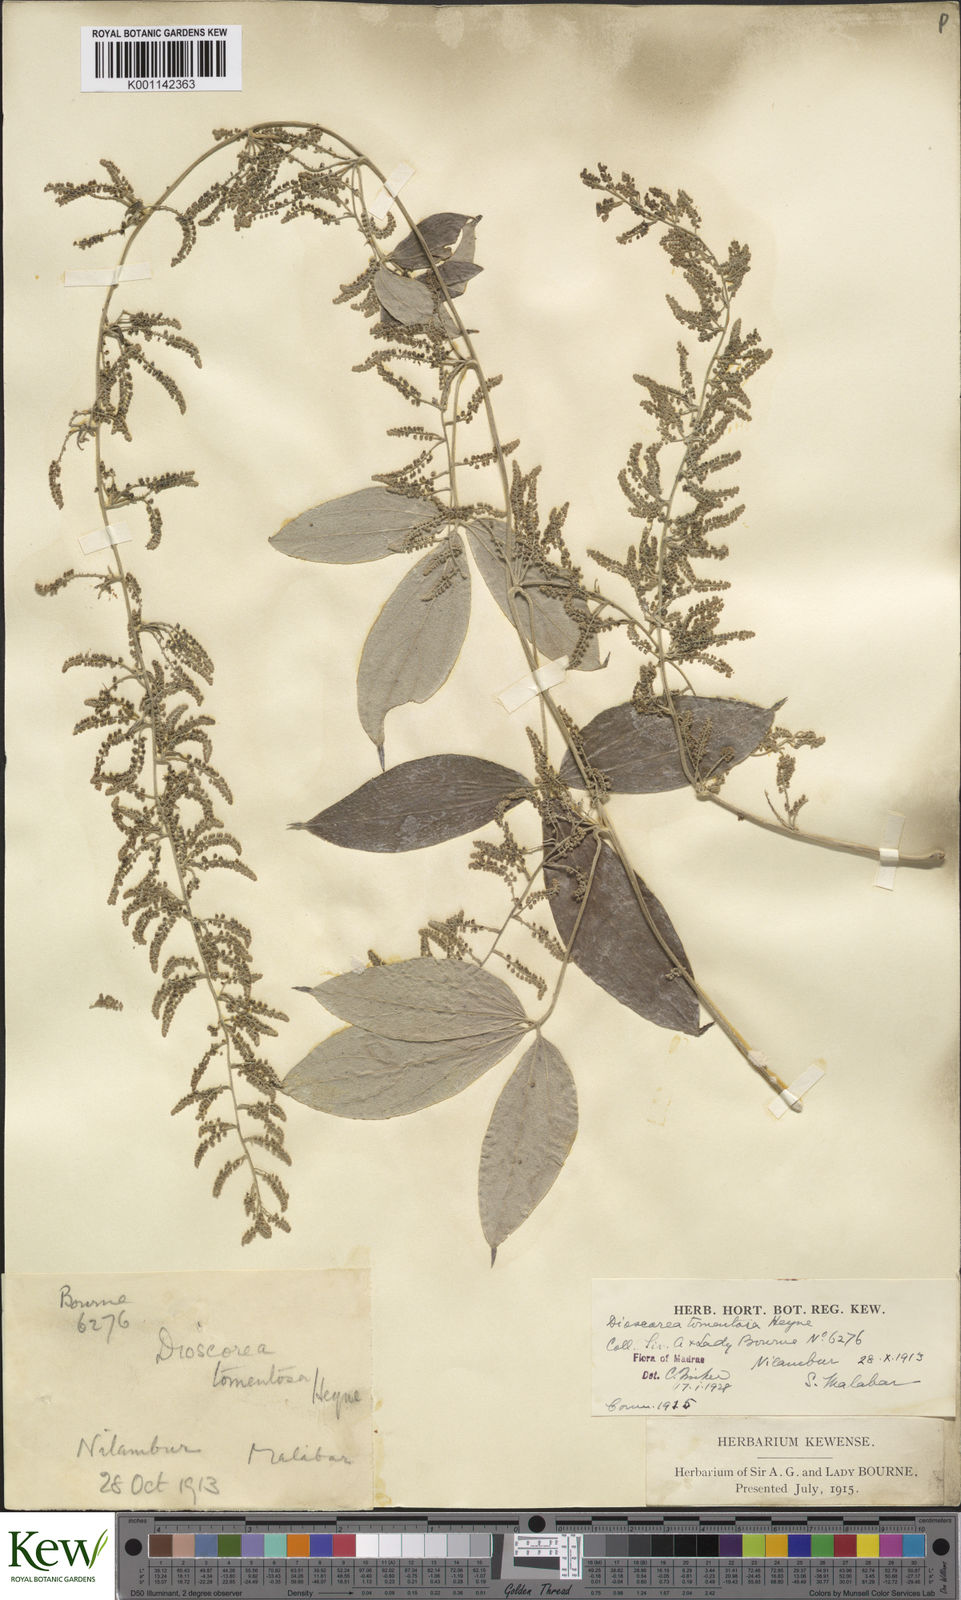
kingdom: Plantae
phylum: Tracheophyta
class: Liliopsida
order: Dioscoreales
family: Dioscoreaceae
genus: Dioscorea
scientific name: Dioscorea
